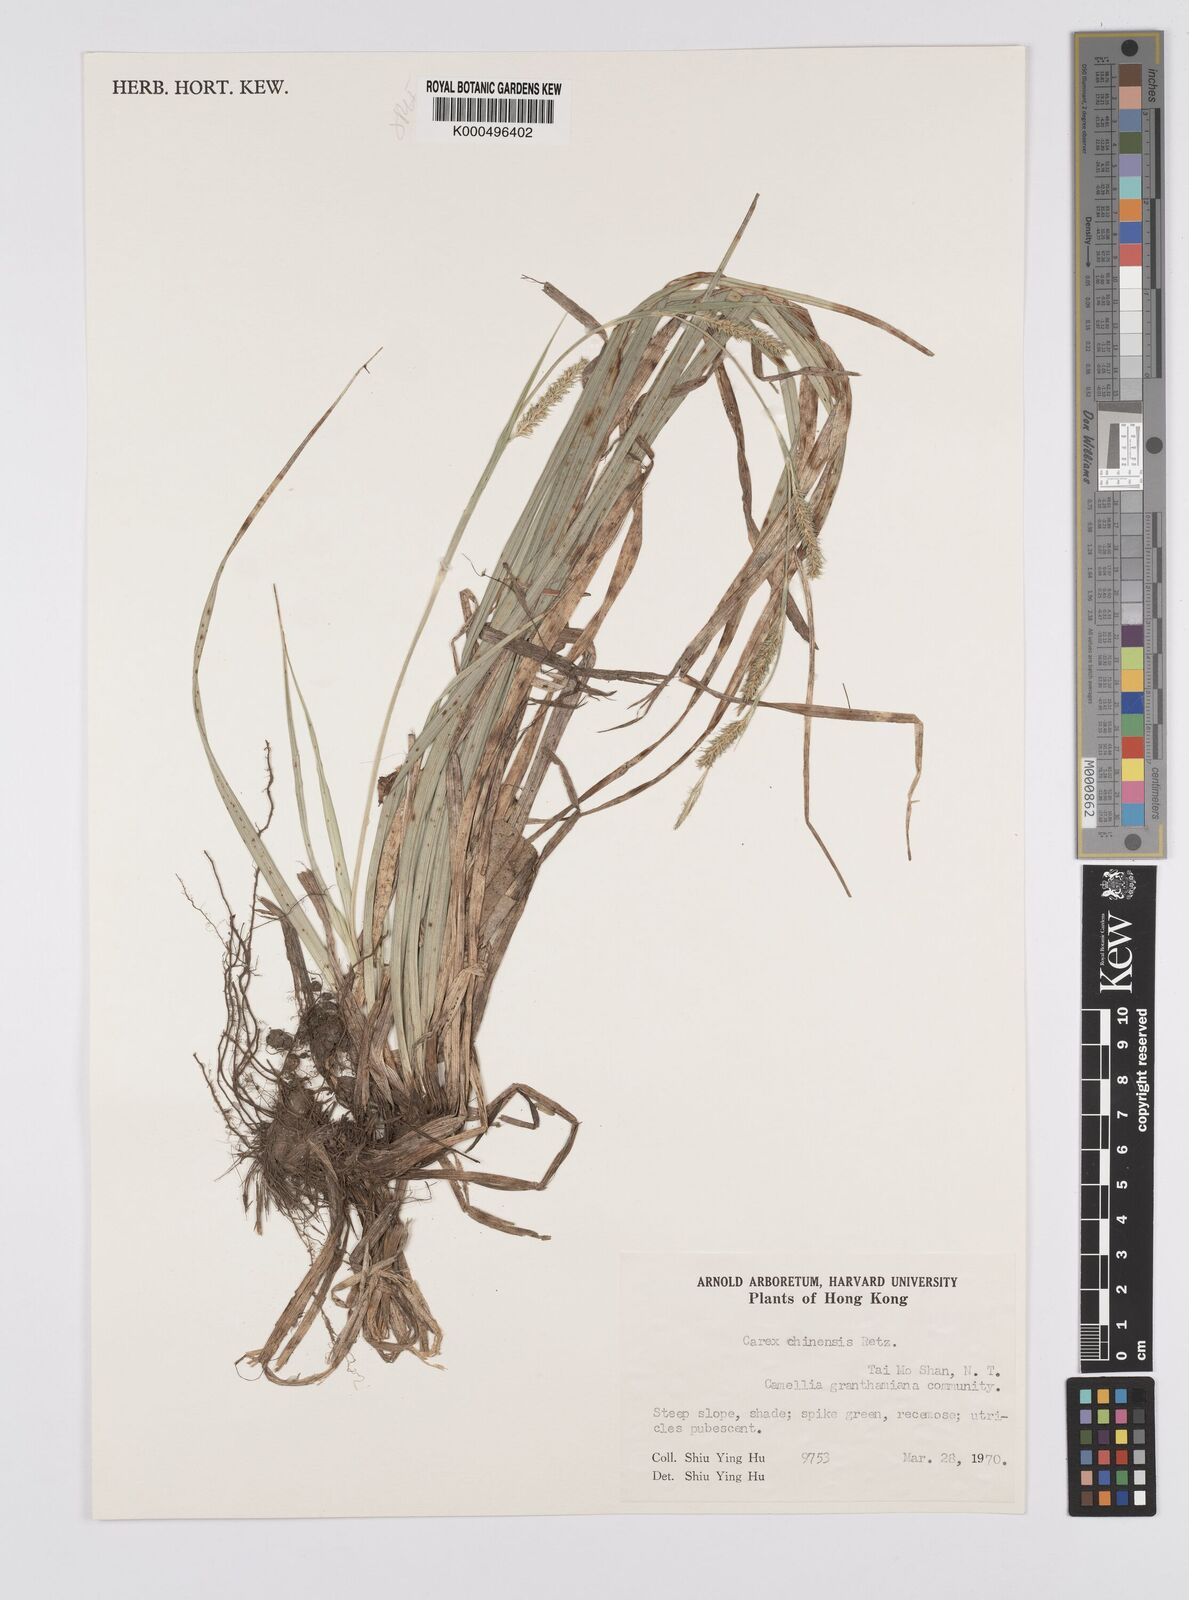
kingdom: Plantae
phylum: Tracheophyta
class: Liliopsida
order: Poales
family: Cyperaceae
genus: Carex
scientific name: Carex chinensis
